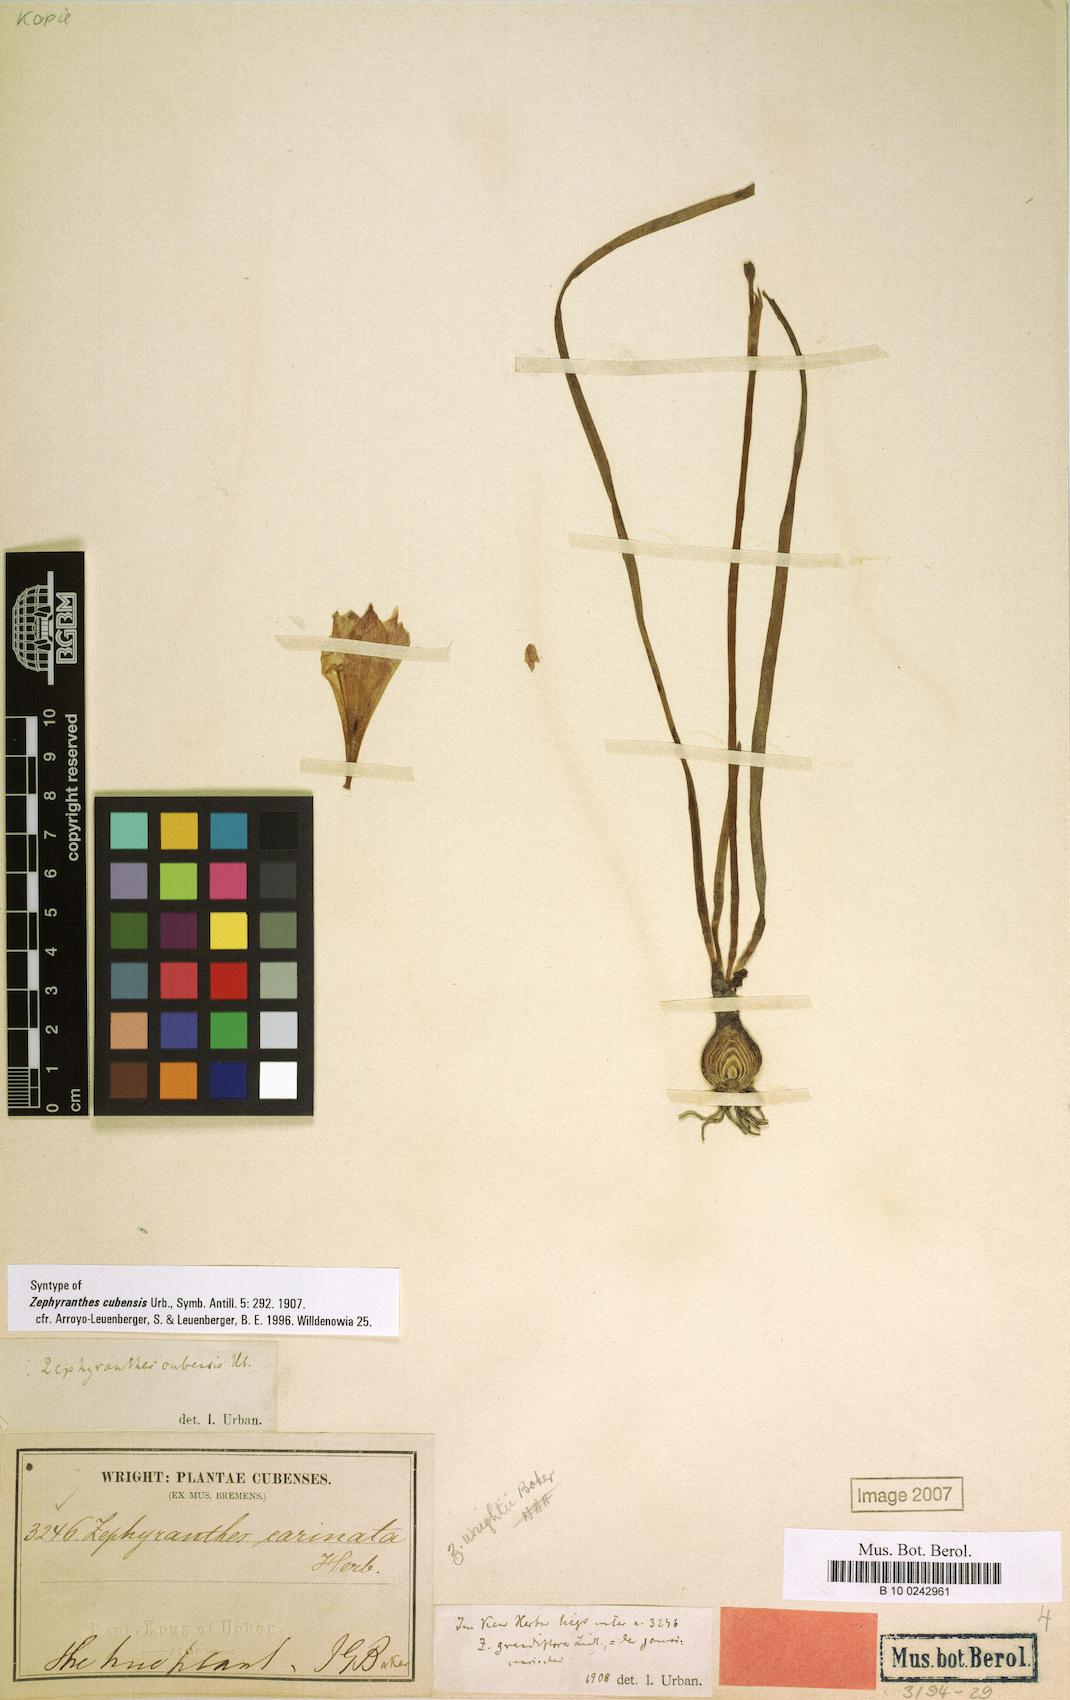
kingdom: Plantae
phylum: Tracheophyta
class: Liliopsida
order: Asparagales
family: Amaryllidaceae
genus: Zephyranthes
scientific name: Zephyranthes cubensis
